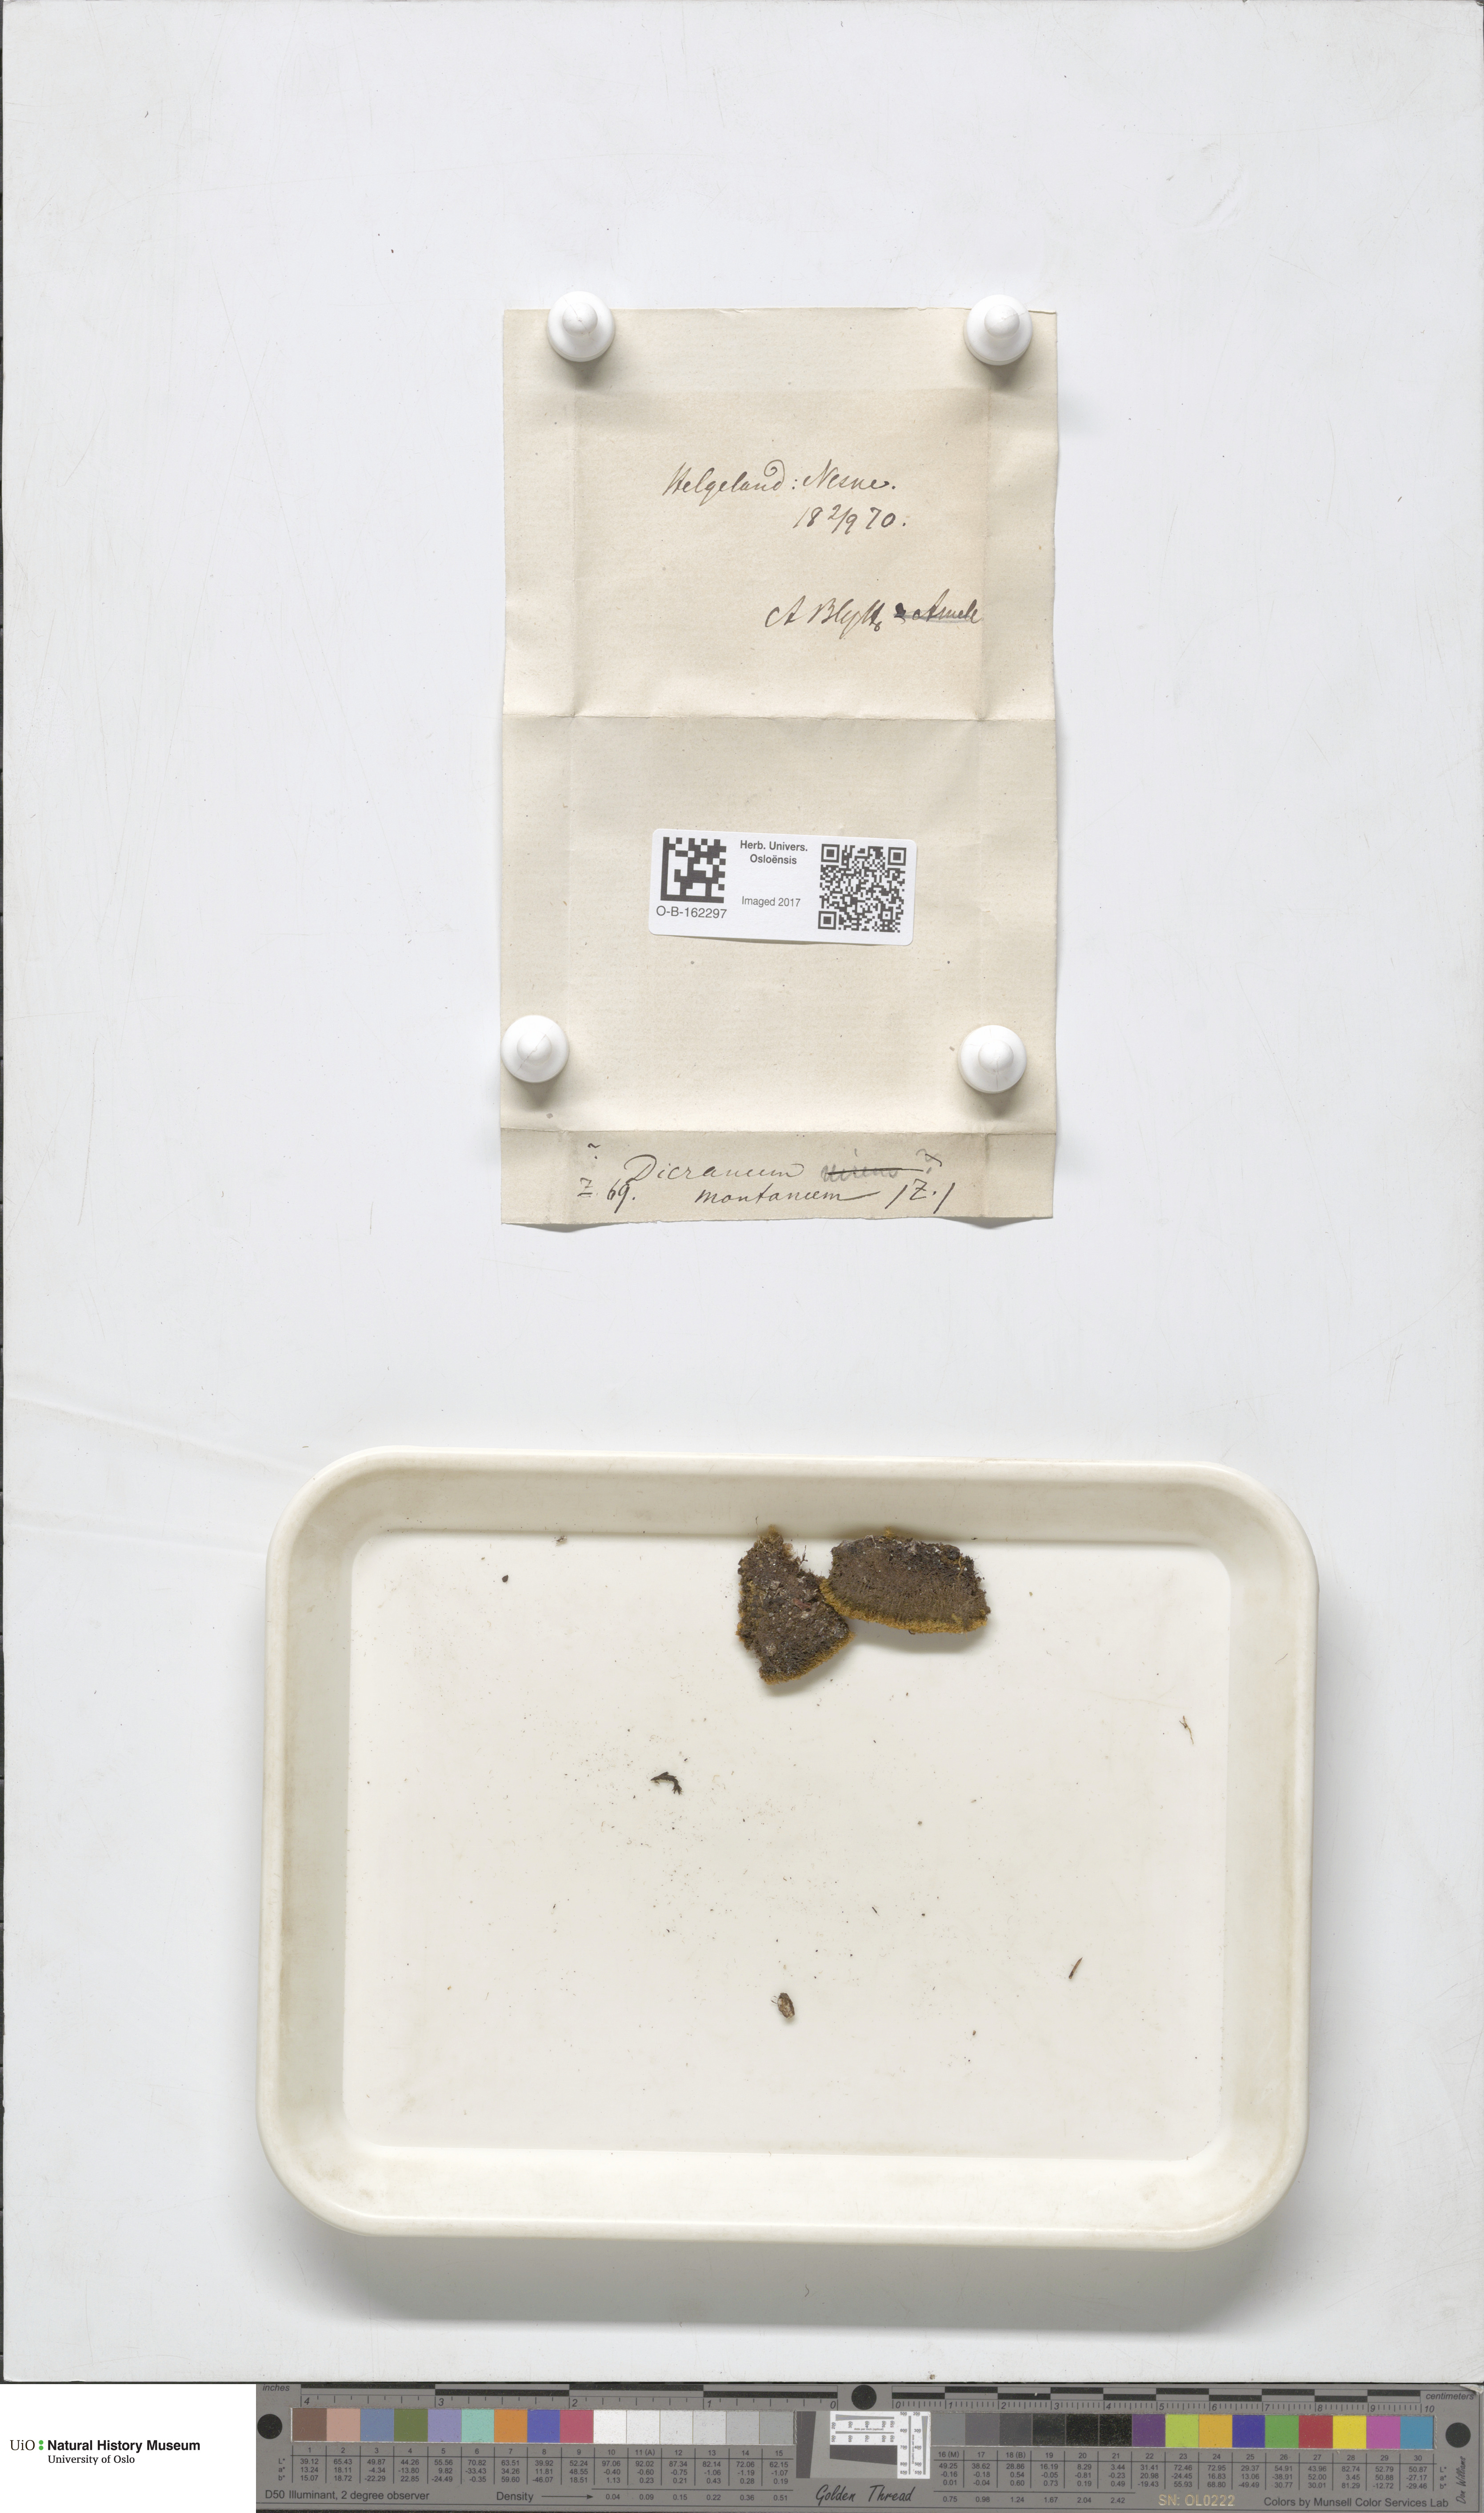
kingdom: Plantae
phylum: Bryophyta
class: Bryopsida
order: Dicranales
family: Dicranaceae
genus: Orthodicranum
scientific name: Orthodicranum montanum
